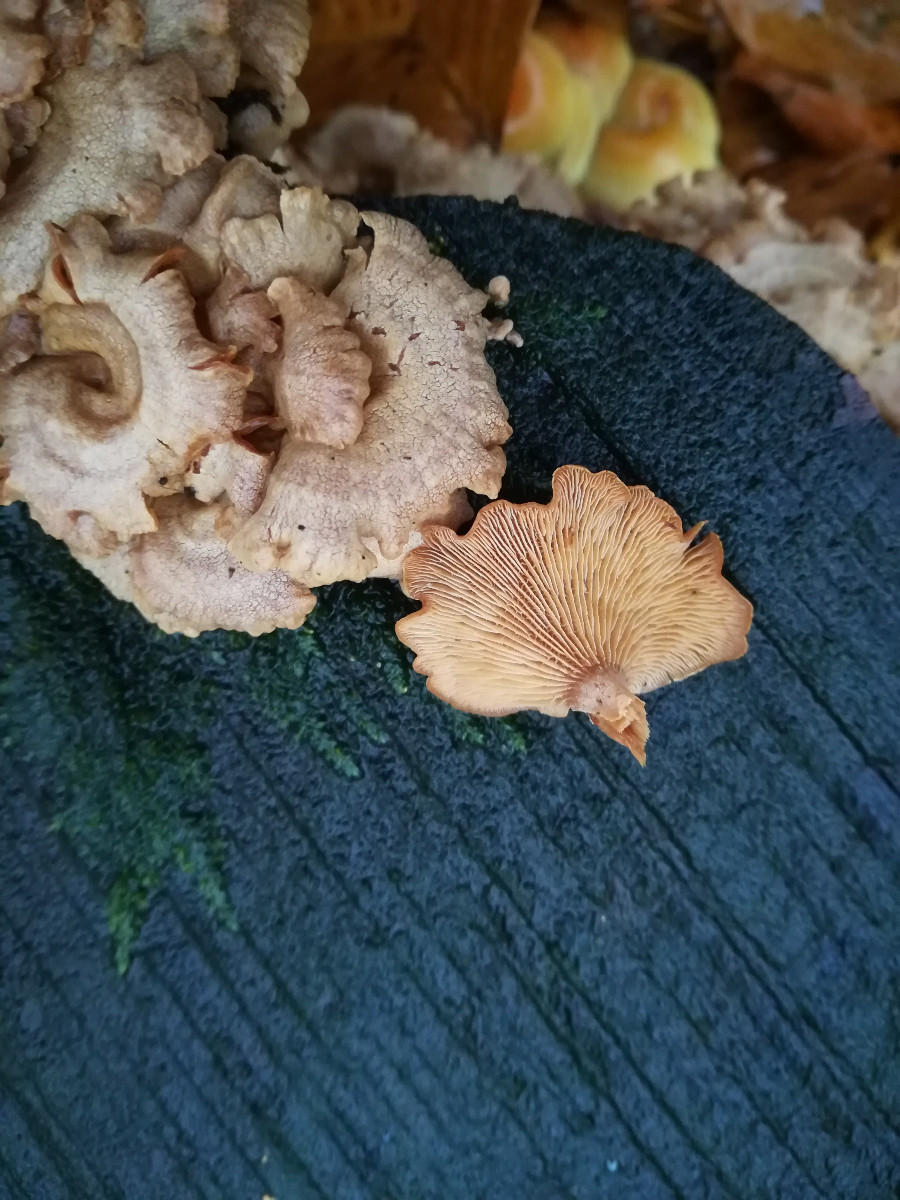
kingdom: Fungi
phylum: Basidiomycota
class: Agaricomycetes
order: Agaricales
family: Mycenaceae
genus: Panellus
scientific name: Panellus stipticus
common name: kliddet epaulethat
